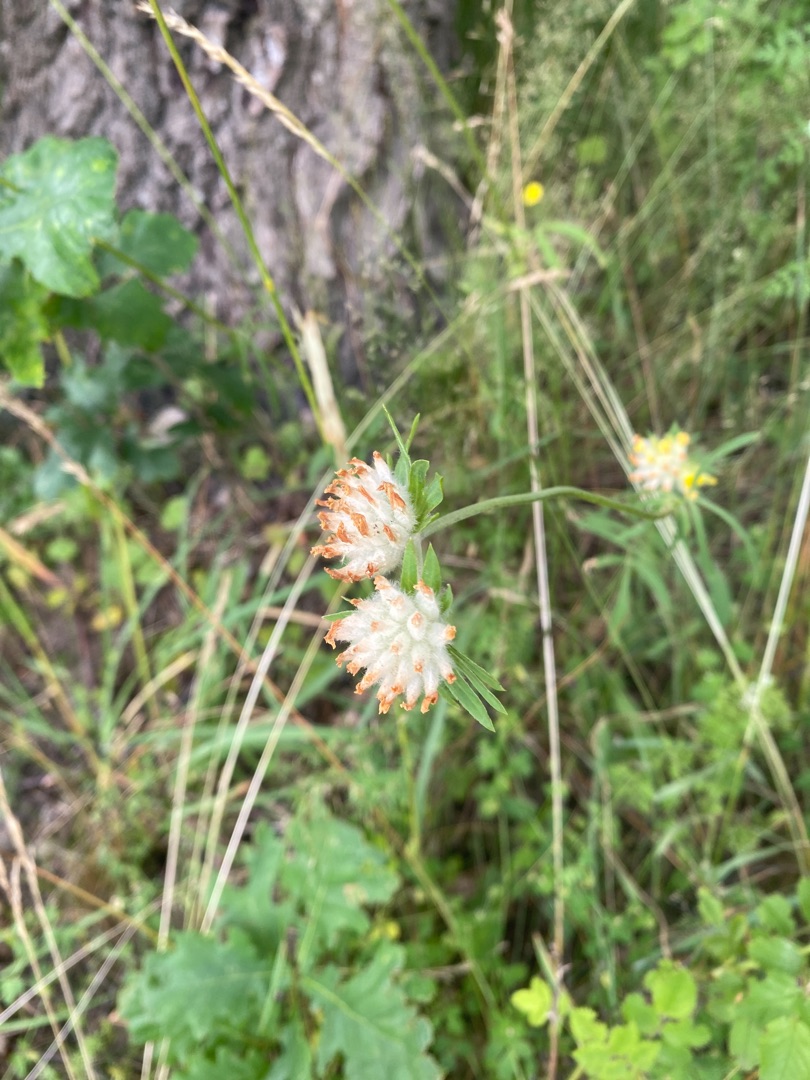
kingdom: Plantae
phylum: Tracheophyta
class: Magnoliopsida
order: Fabales
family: Fabaceae
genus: Anthyllis
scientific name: Anthyllis vulneraria
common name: Rundbælg
